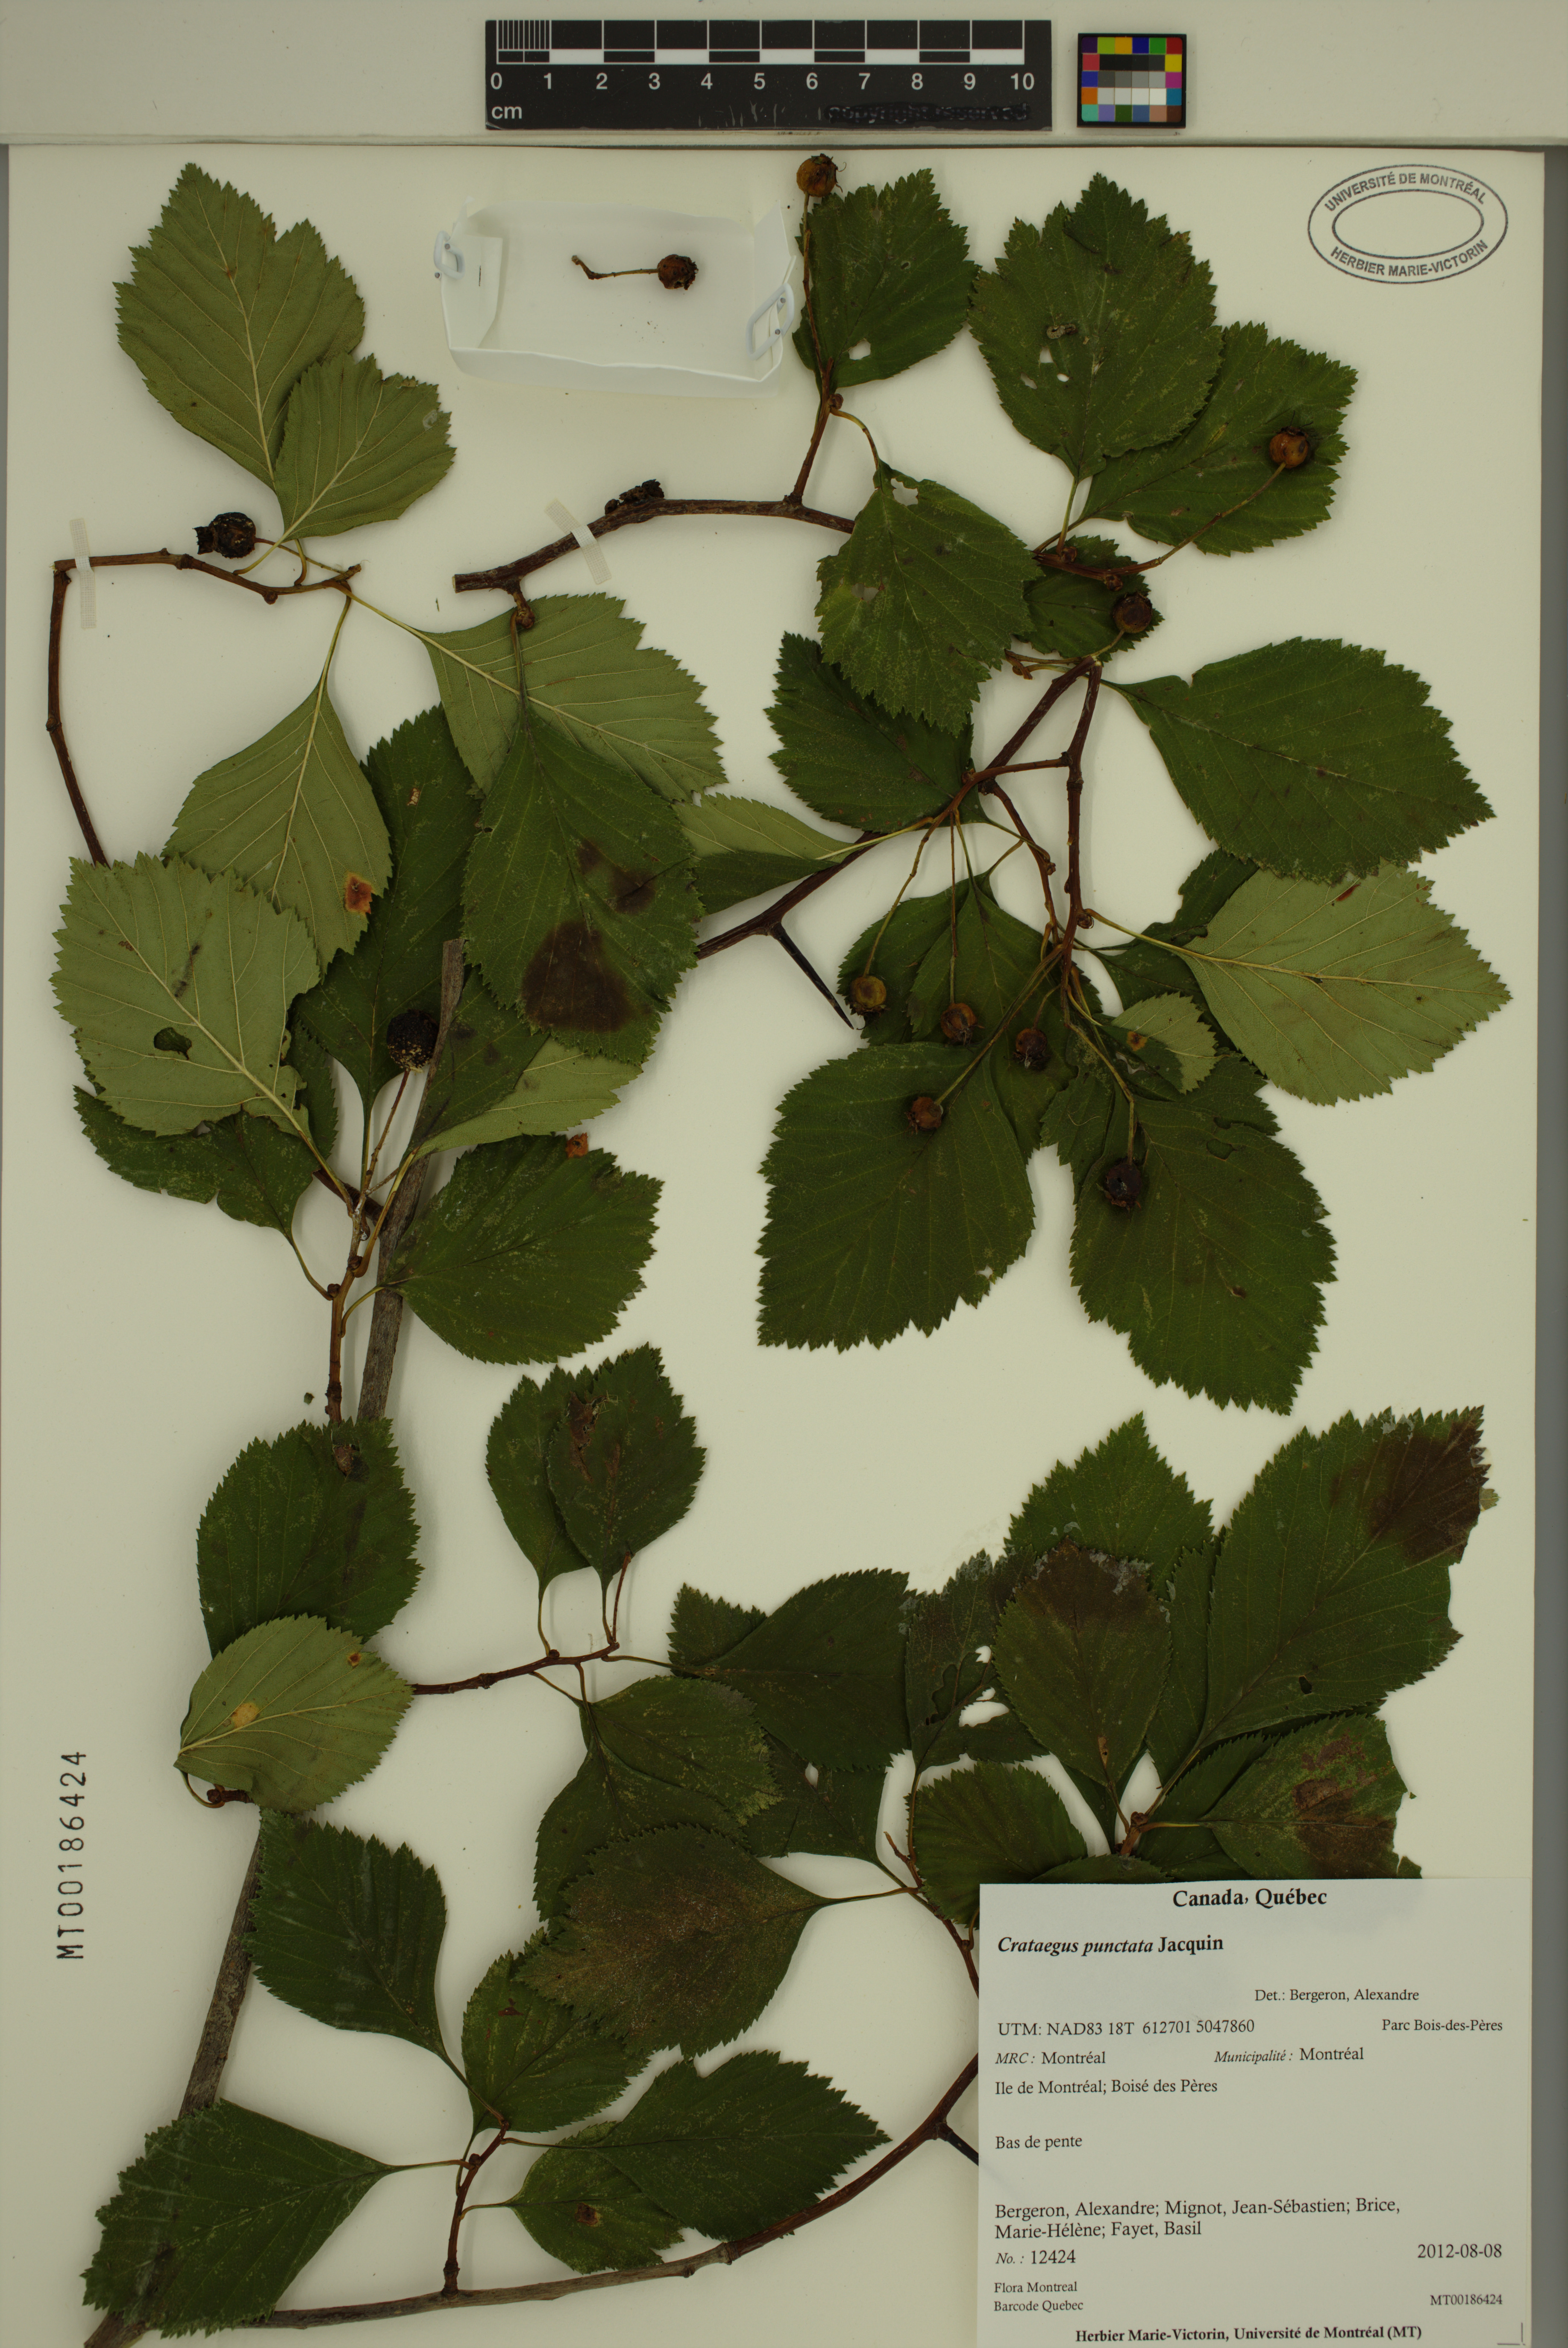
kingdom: Plantae
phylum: Tracheophyta
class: Magnoliopsida
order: Rosales
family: Rosaceae
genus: Crataegus
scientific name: Crataegus punctata
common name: Dotted hawthorn
